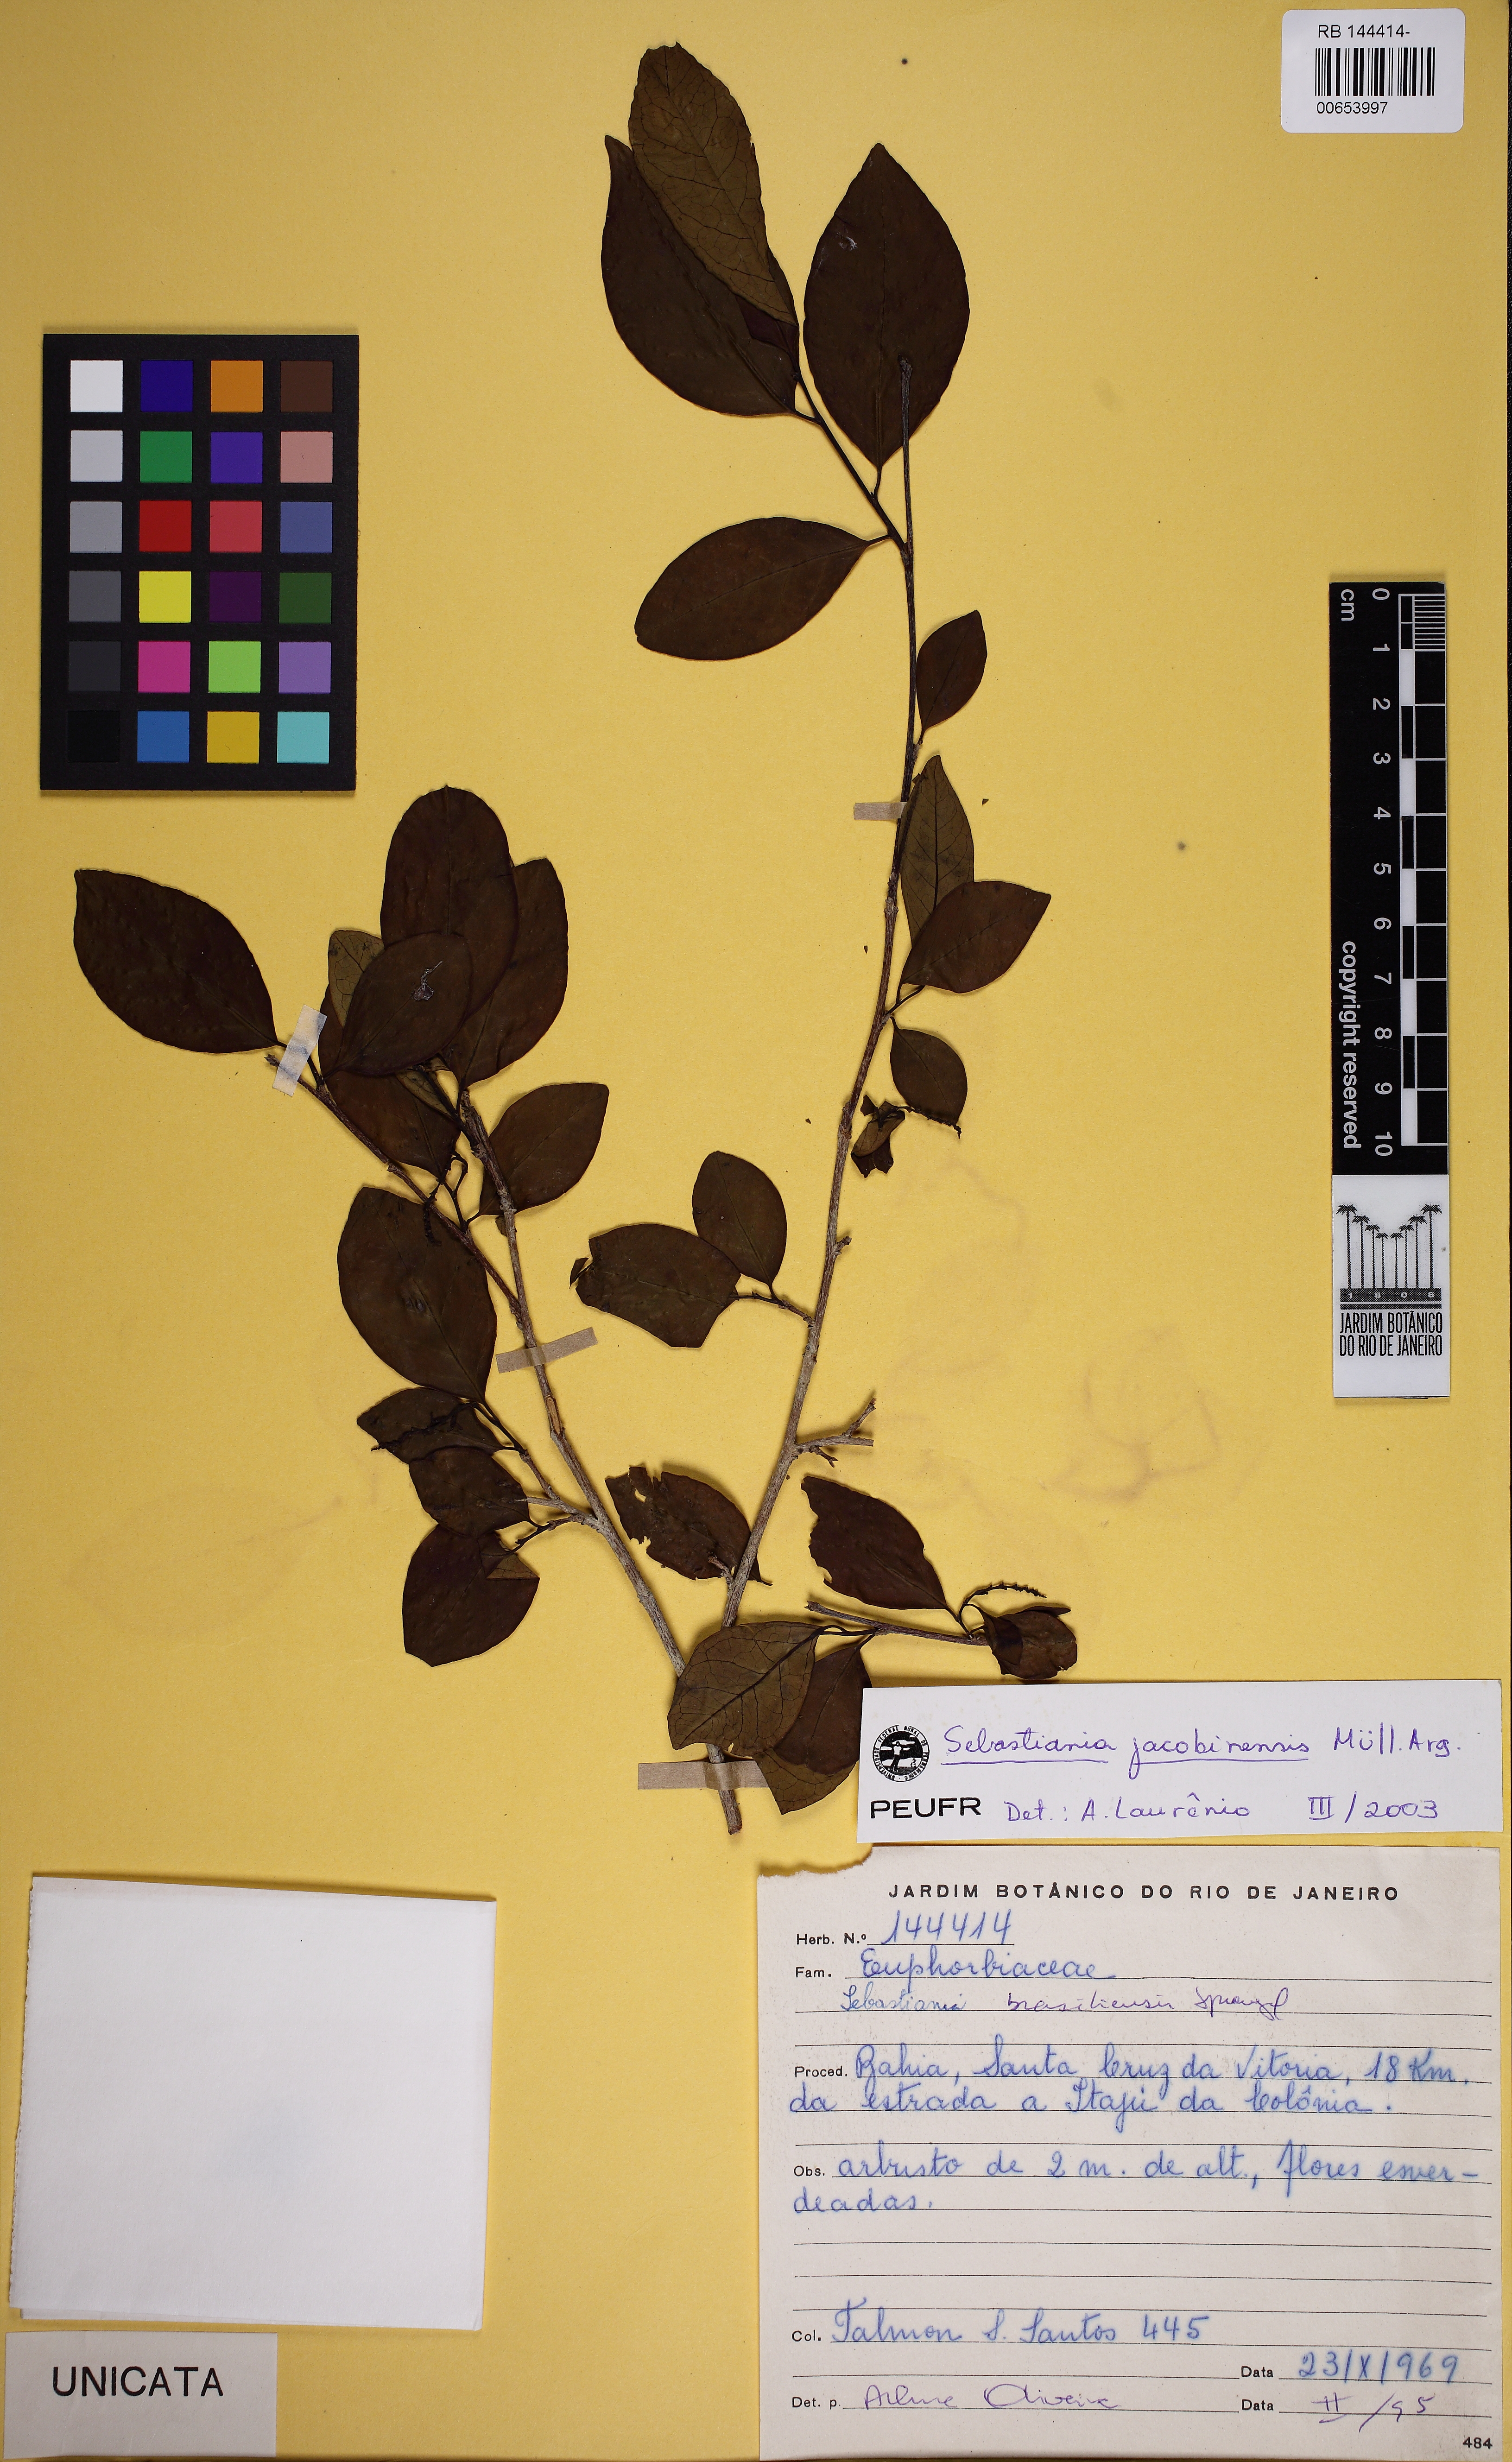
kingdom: Plantae
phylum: Tracheophyta
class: Magnoliopsida
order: Malpighiales
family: Euphorbiaceae
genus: Sebastiania
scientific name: Sebastiania jacobinensis
